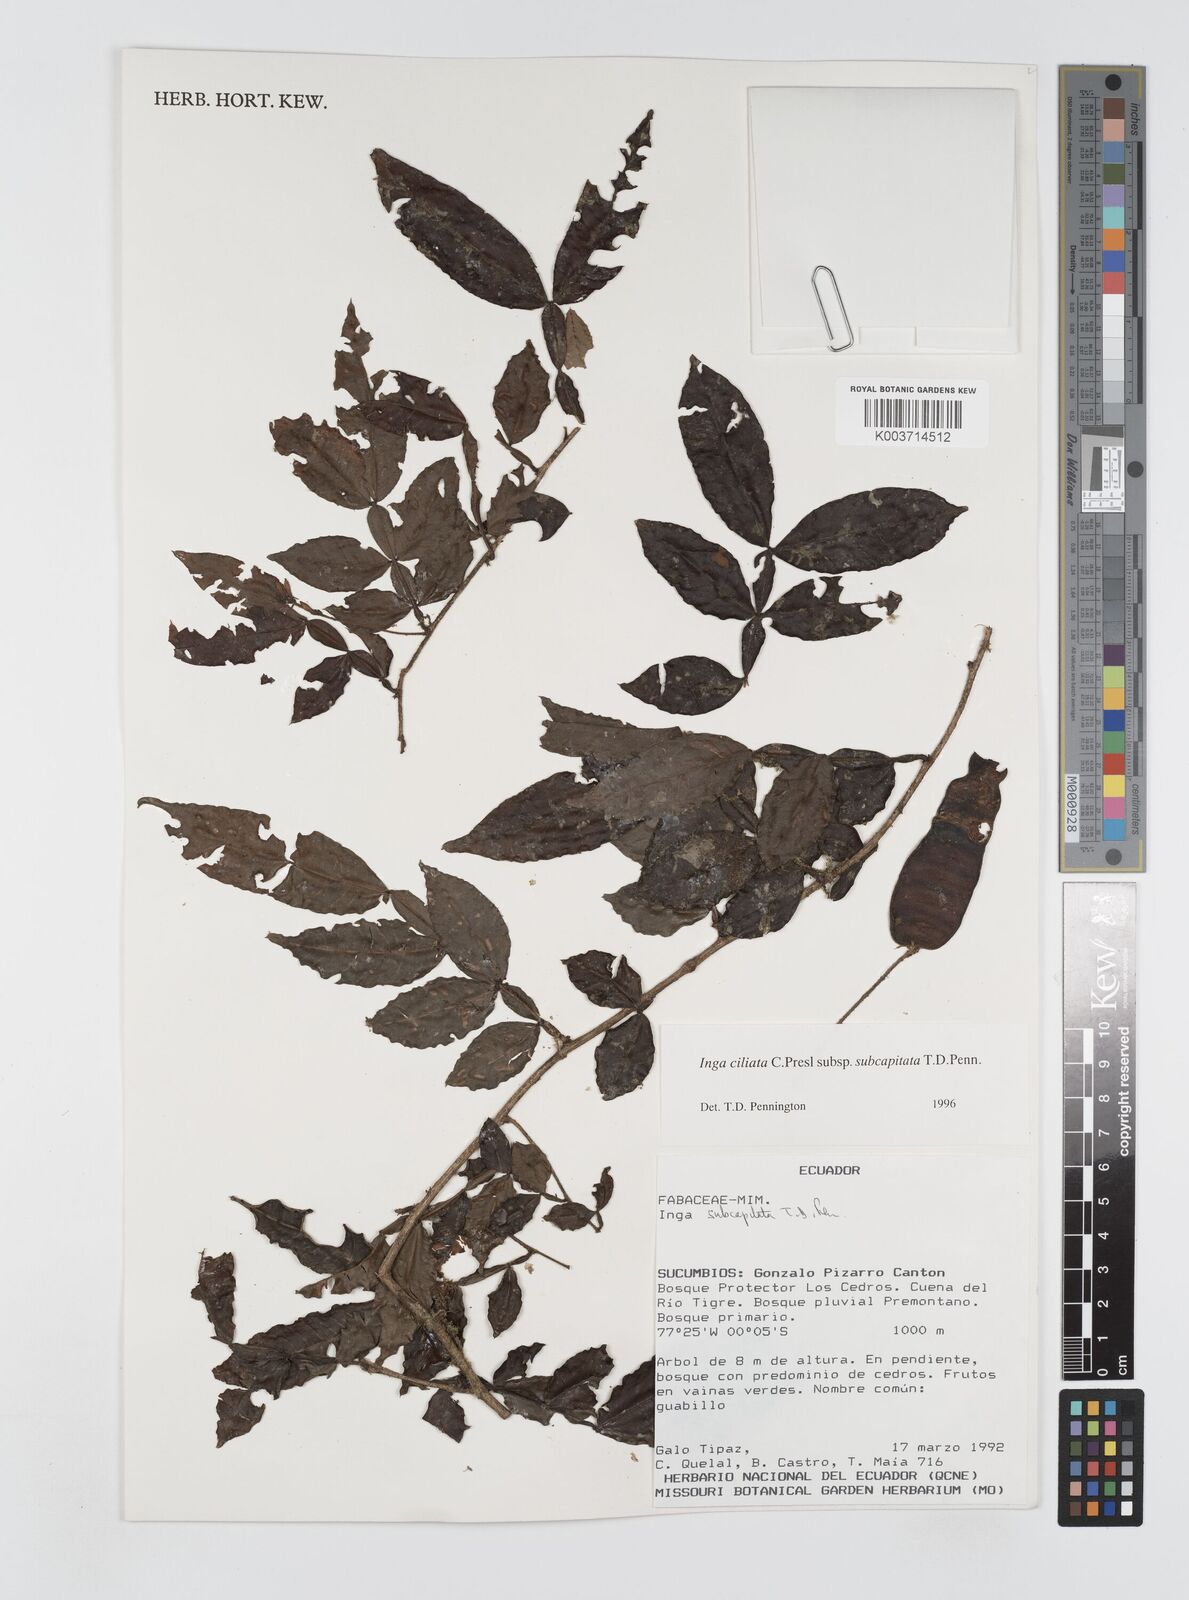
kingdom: Plantae
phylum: Tracheophyta
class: Magnoliopsida
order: Fabales
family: Fabaceae
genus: Inga
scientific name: Inga ciliata
